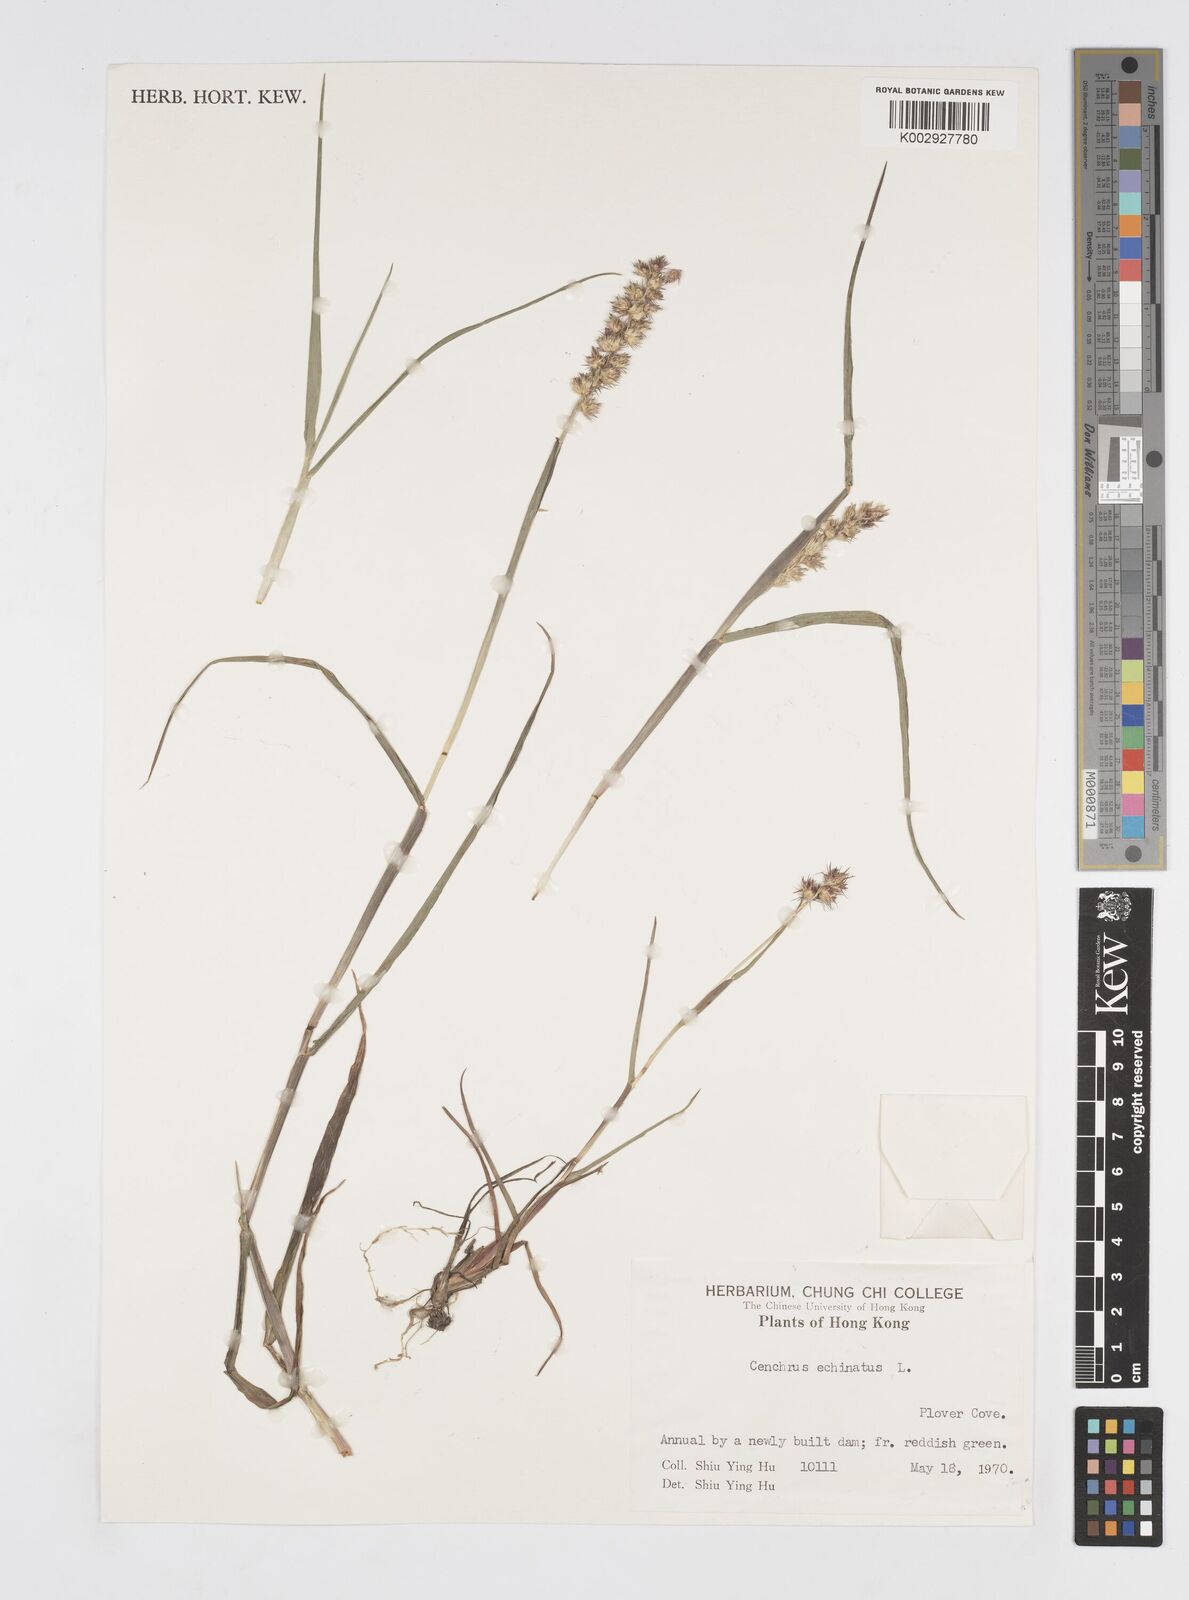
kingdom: Plantae
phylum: Tracheophyta
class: Liliopsida
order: Poales
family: Poaceae
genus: Cenchrus
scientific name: Cenchrus echinatus
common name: Southern sandbur
